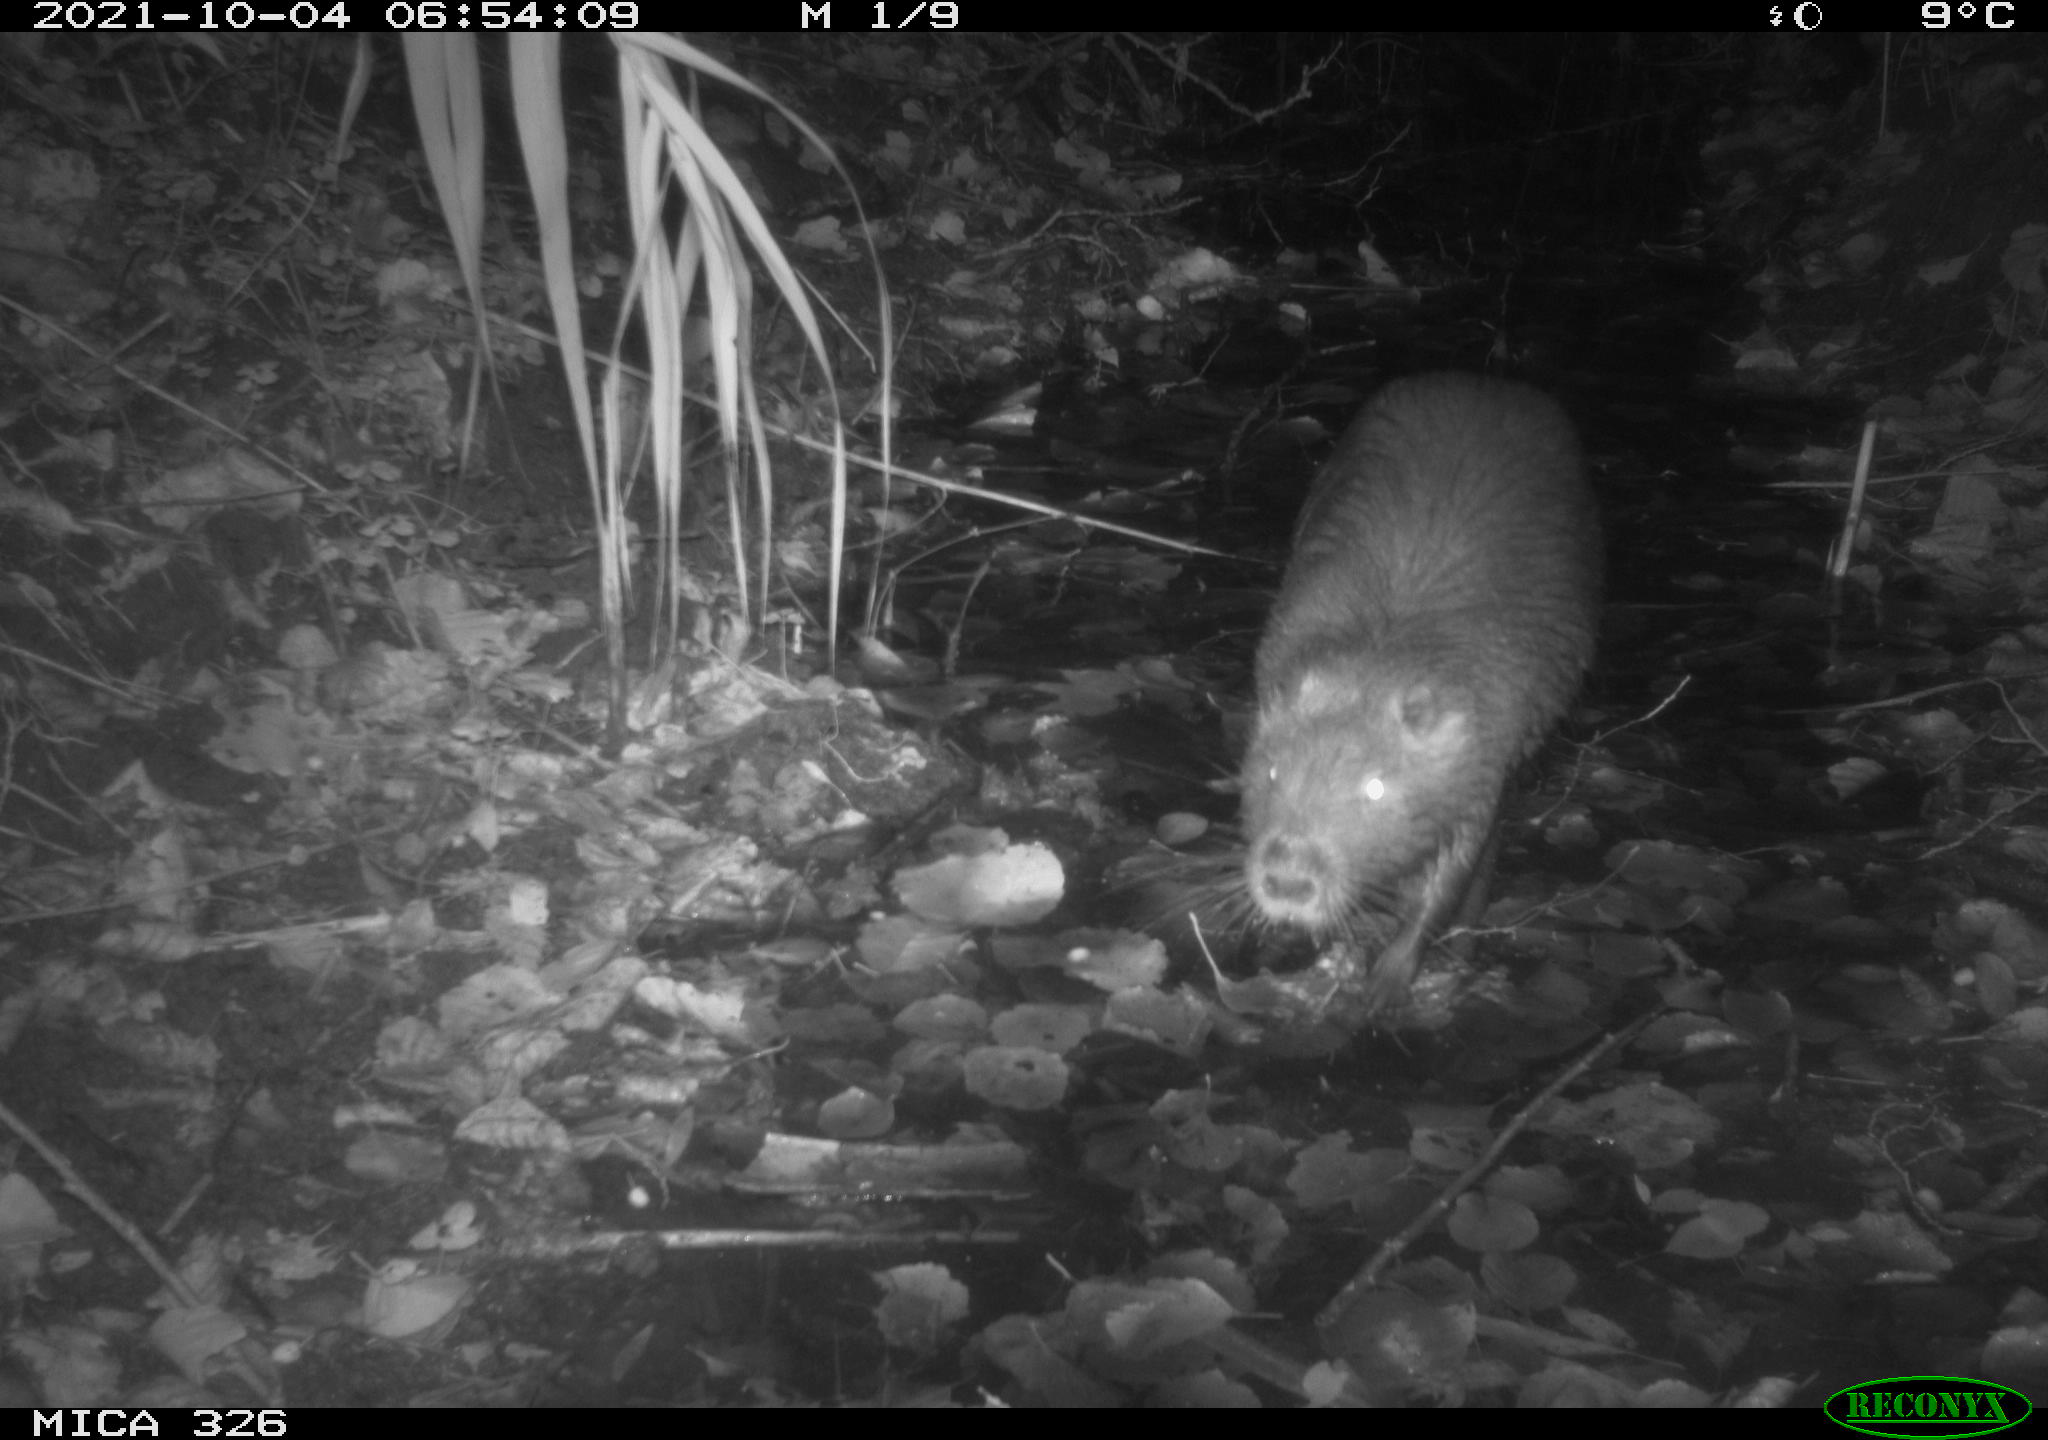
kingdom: Animalia
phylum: Chordata
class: Mammalia
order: Rodentia
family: Myocastoridae
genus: Myocastor
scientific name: Myocastor coypus
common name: Coypu
